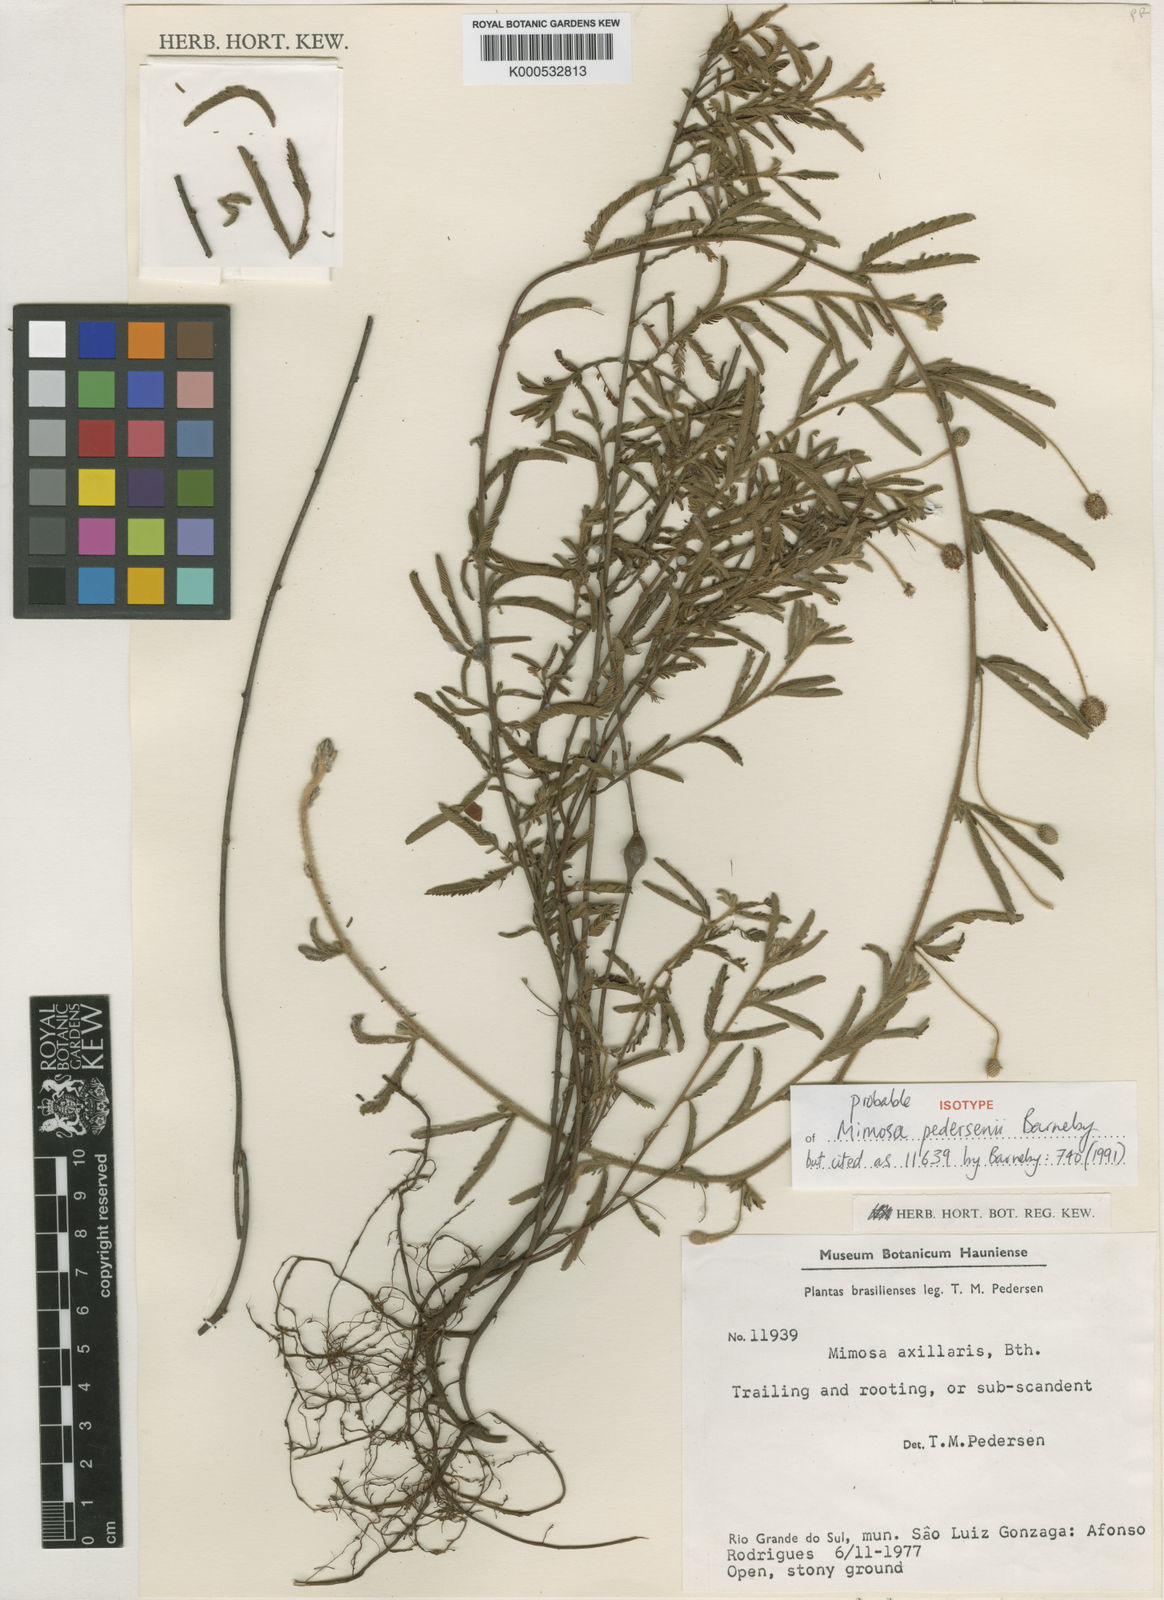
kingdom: Plantae
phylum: Tracheophyta
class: Magnoliopsida
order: Fabales
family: Fabaceae
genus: Mimosa
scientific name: Mimosa pedersenii
